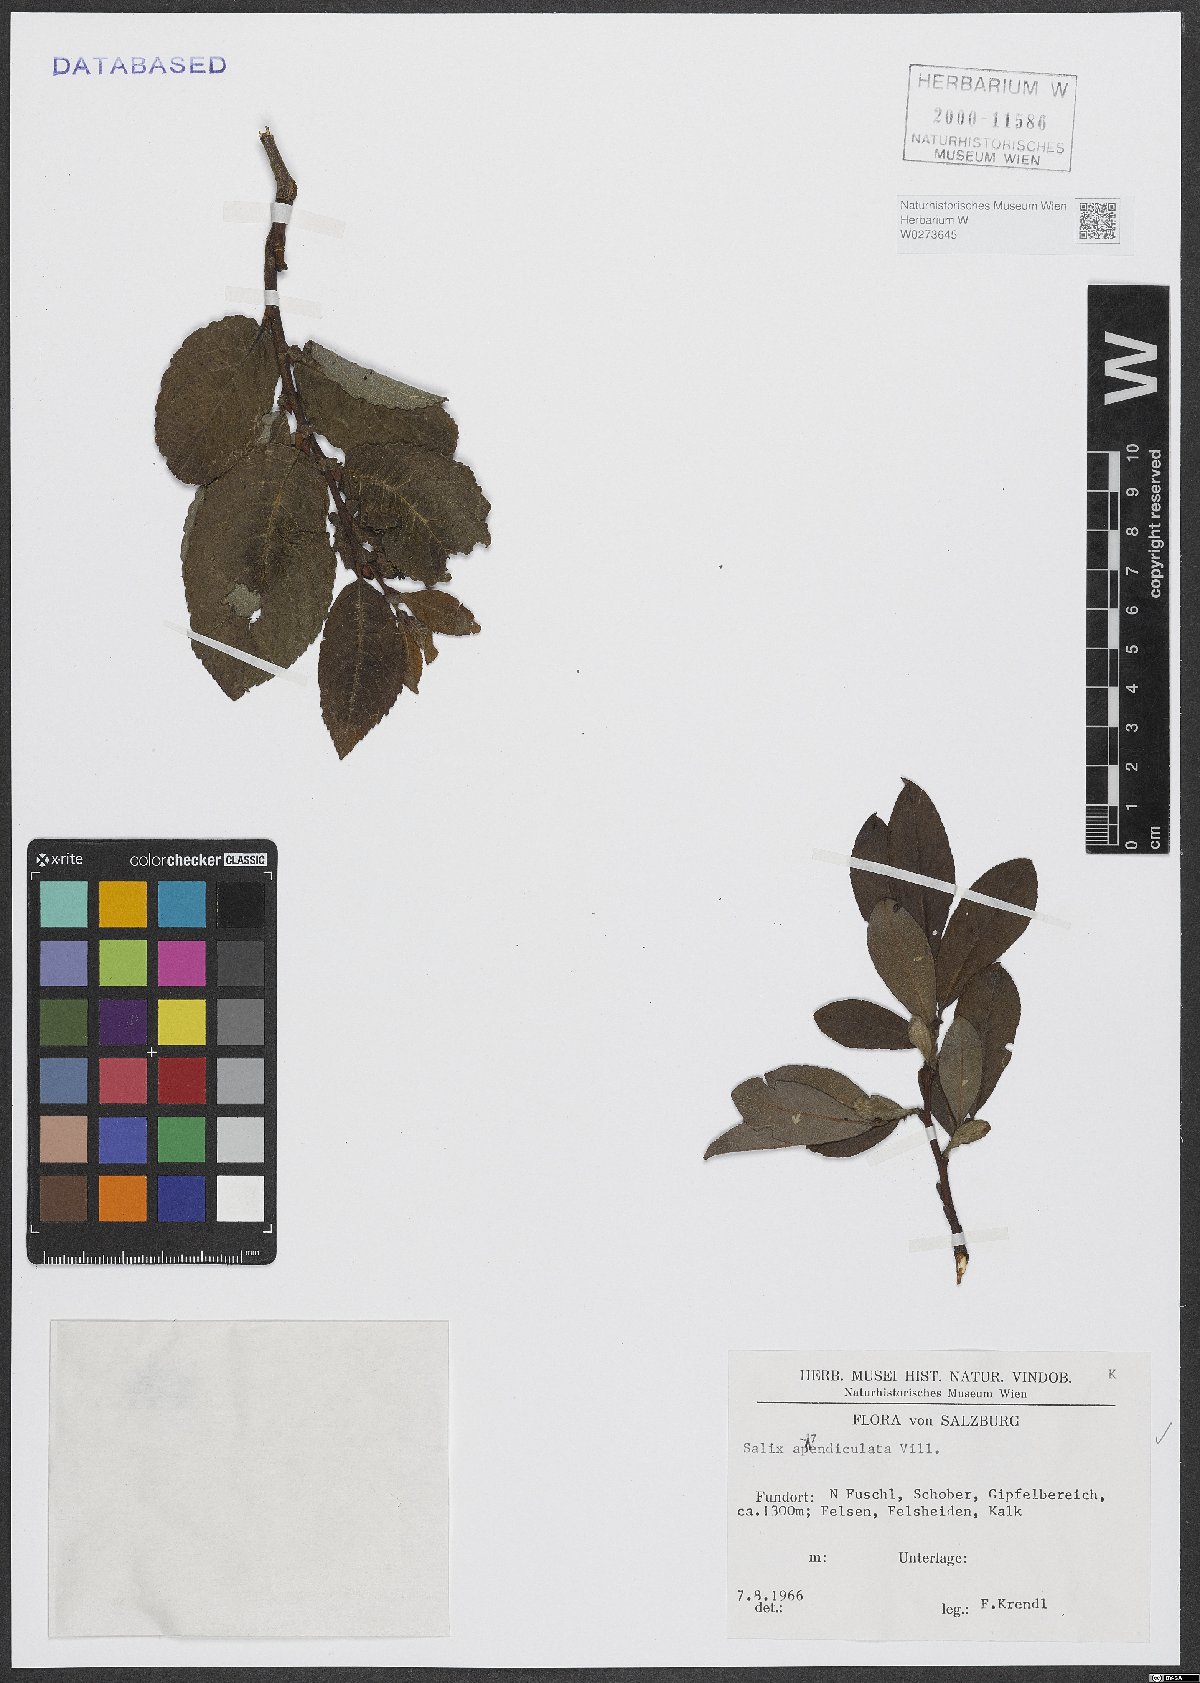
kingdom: Plantae
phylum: Tracheophyta
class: Magnoliopsida
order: Malpighiales
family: Salicaceae
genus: Salix
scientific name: Salix appendiculata
